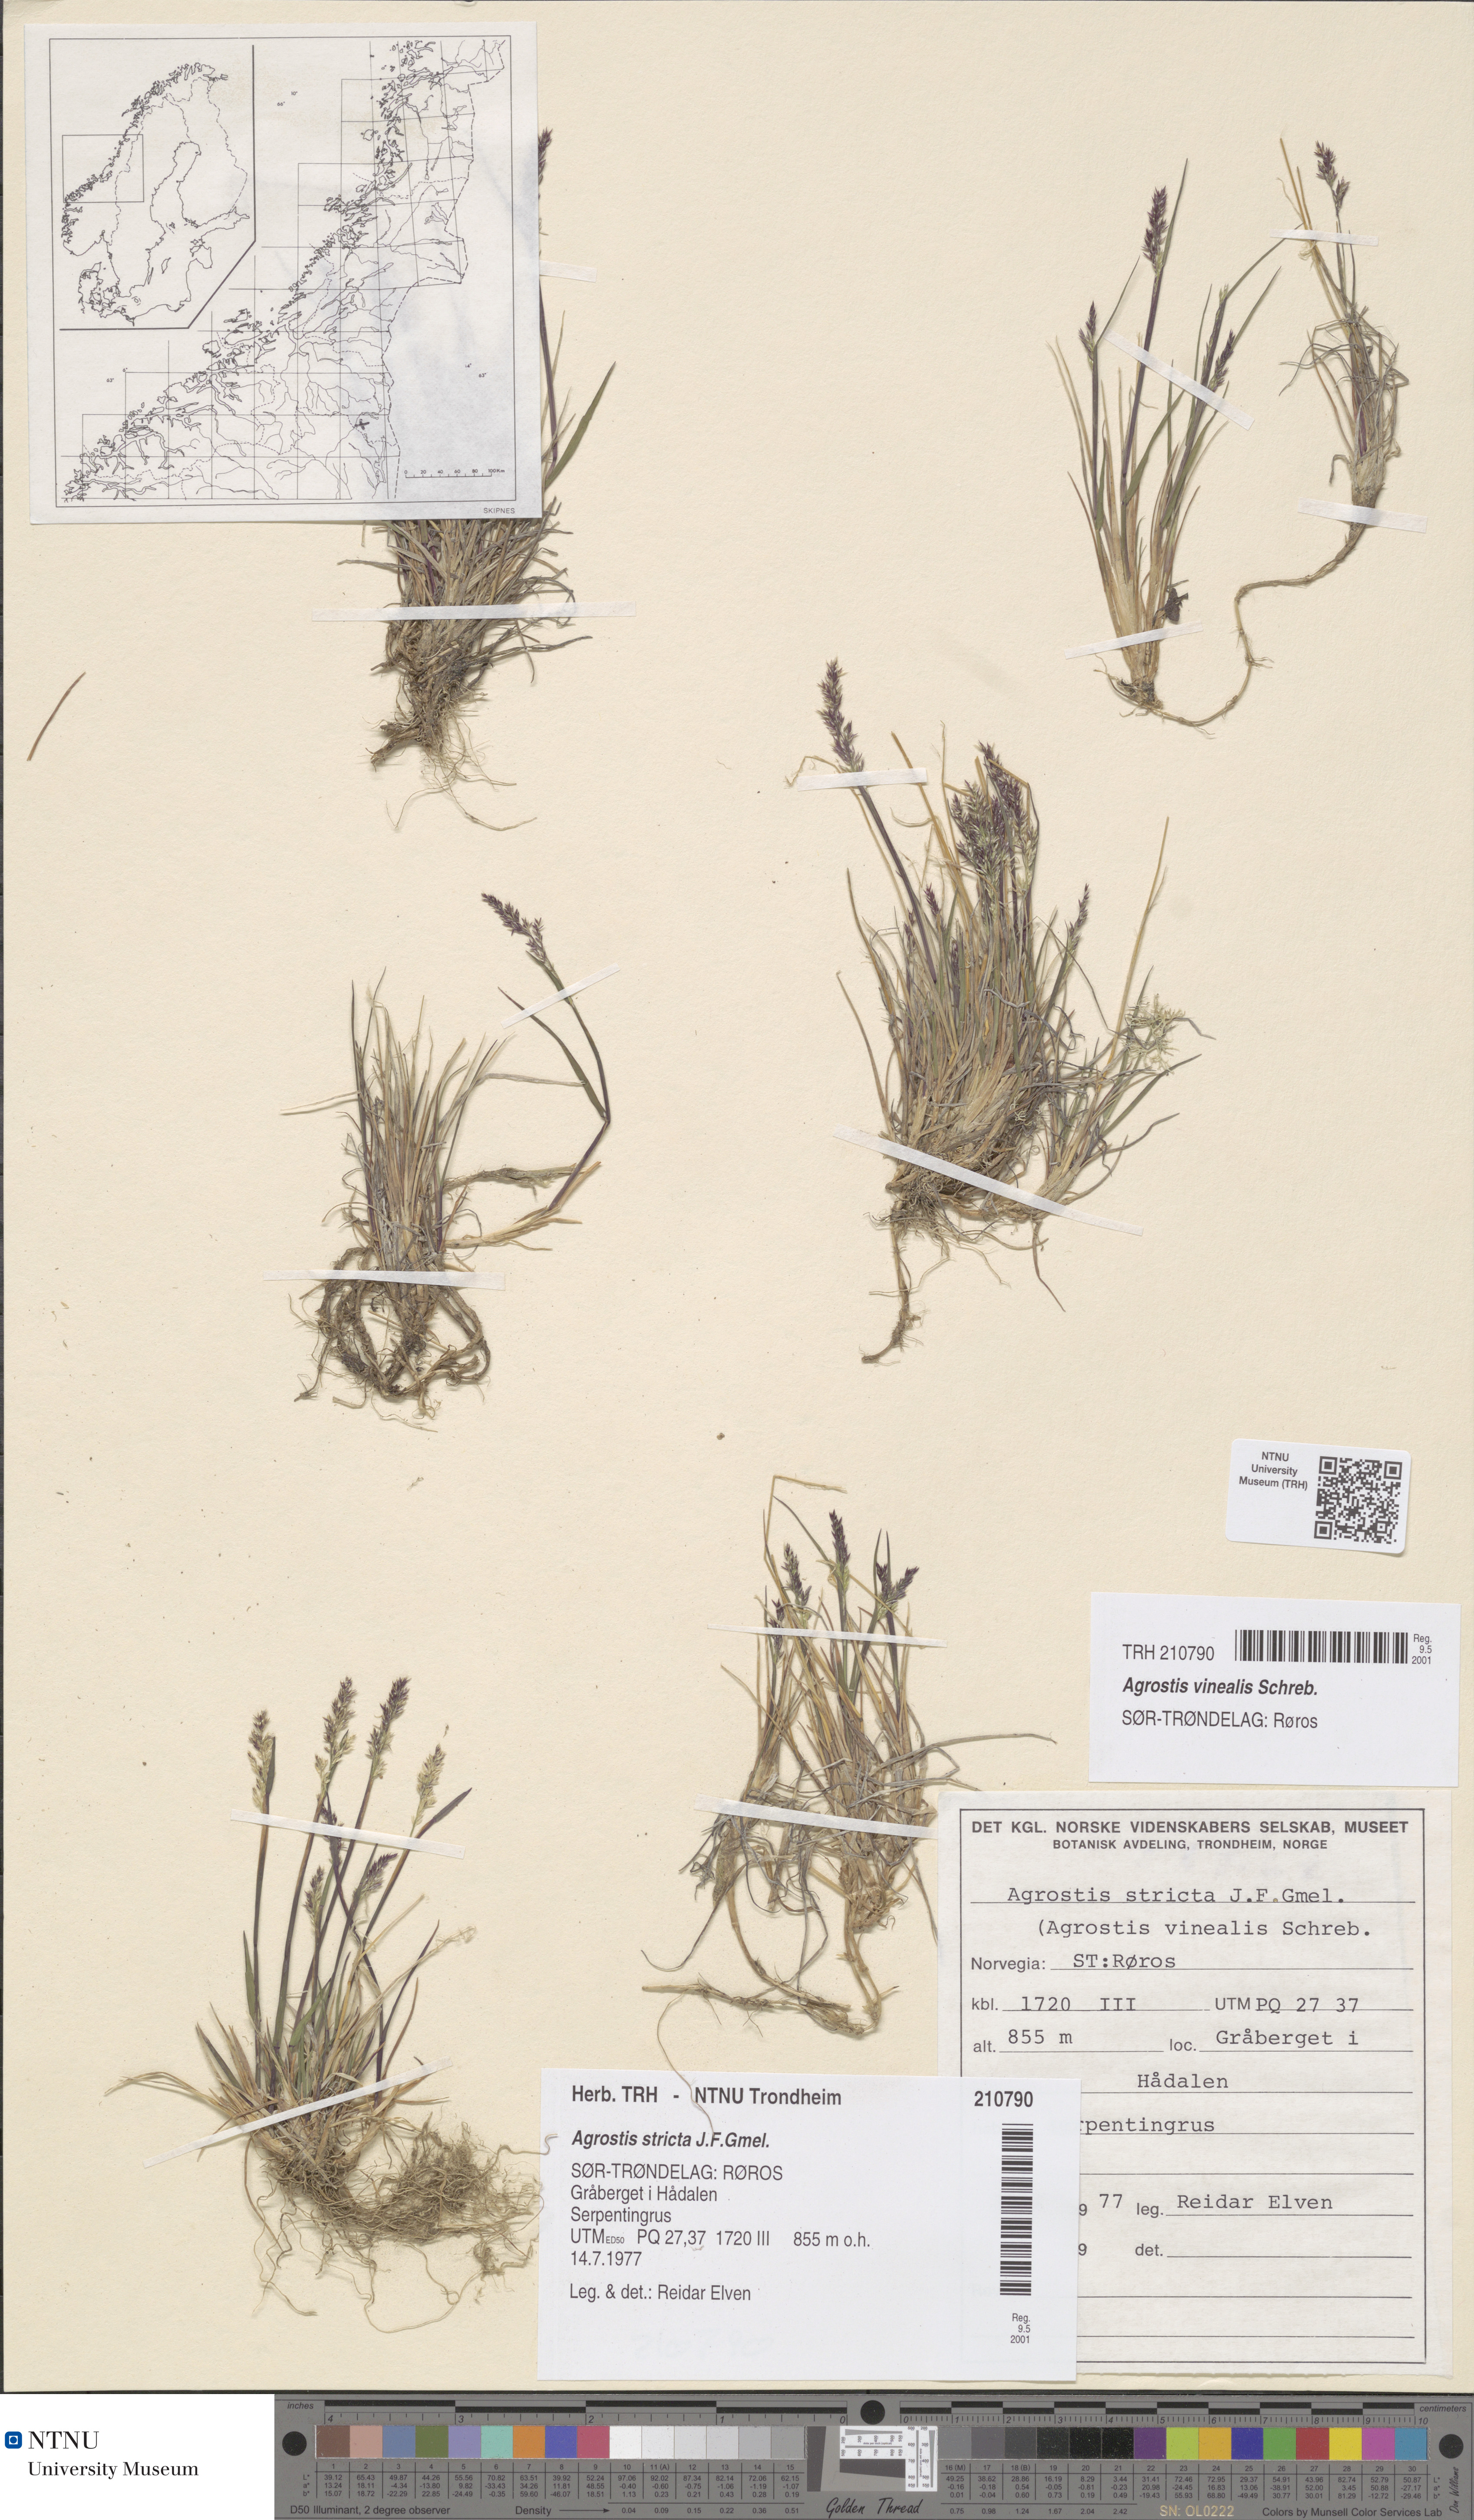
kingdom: Plantae
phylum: Tracheophyta
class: Liliopsida
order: Poales
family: Poaceae
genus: Agrostis
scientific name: Agrostis vinealis
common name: Brown bent
